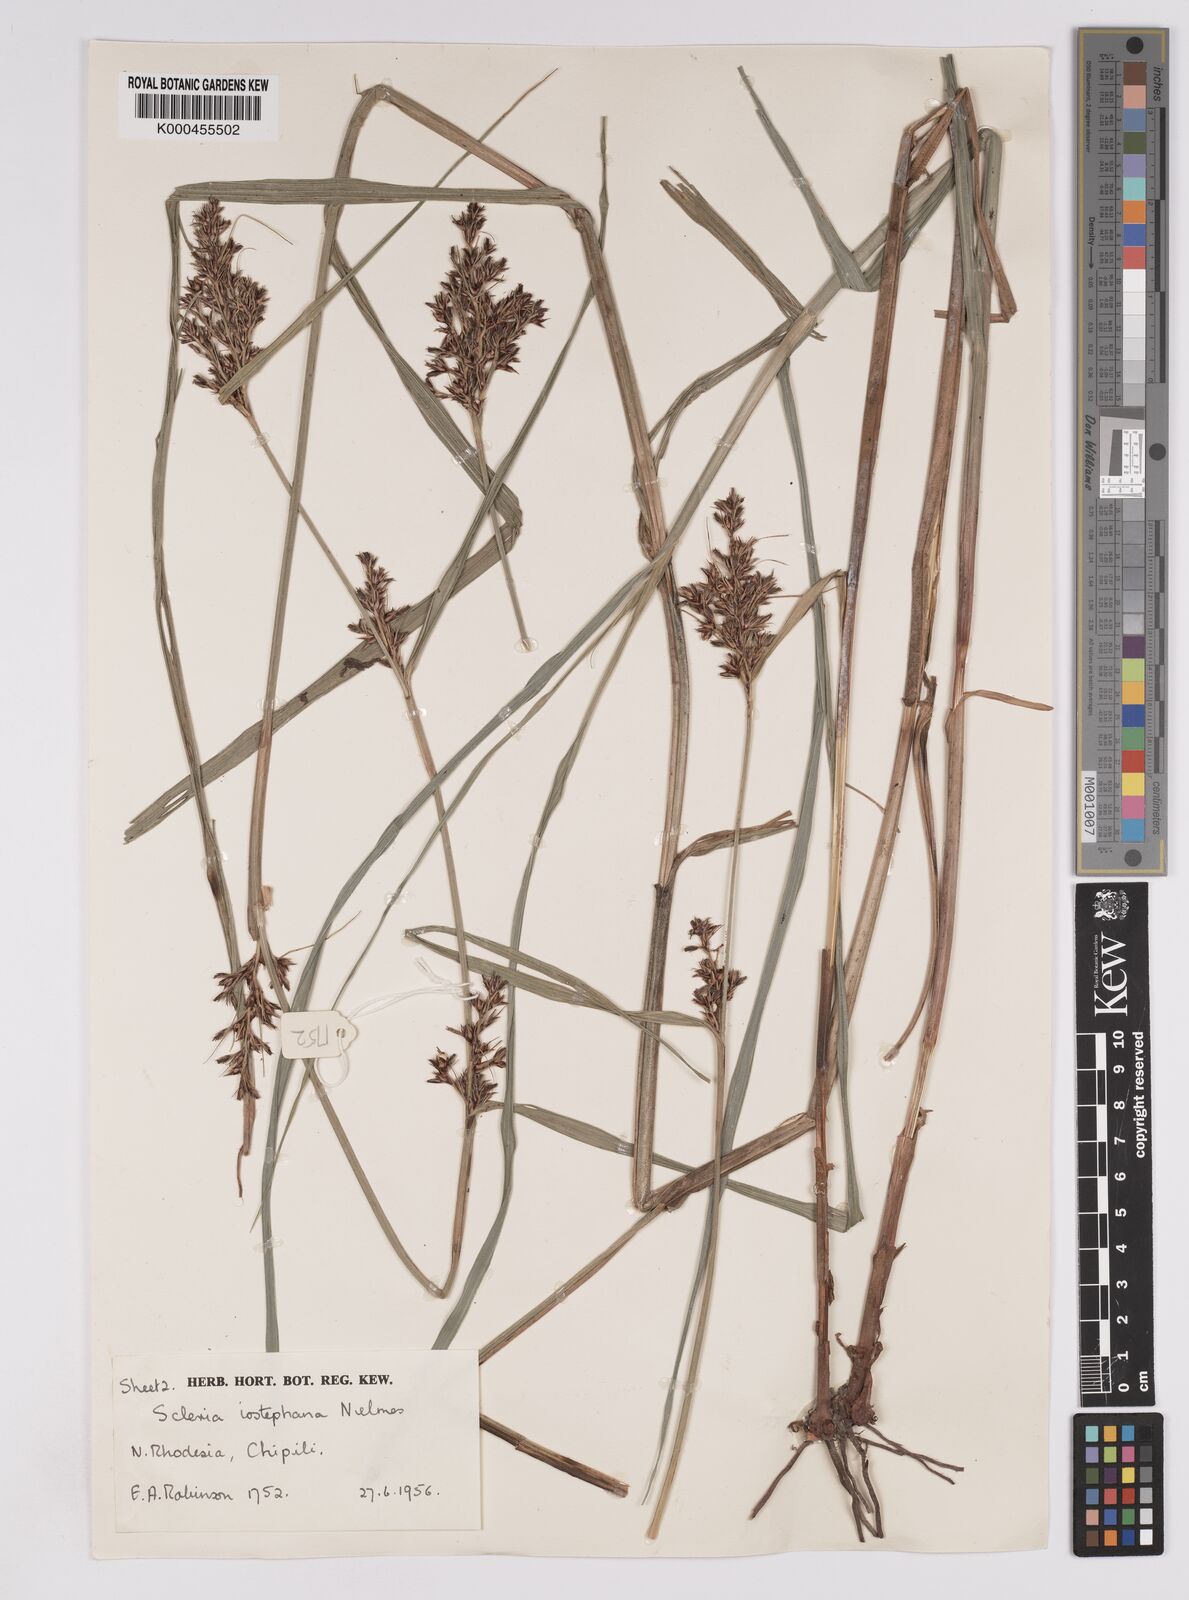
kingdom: Plantae
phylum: Tracheophyta
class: Liliopsida
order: Poales
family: Cyperaceae
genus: Scleria
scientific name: Scleria iostephana
